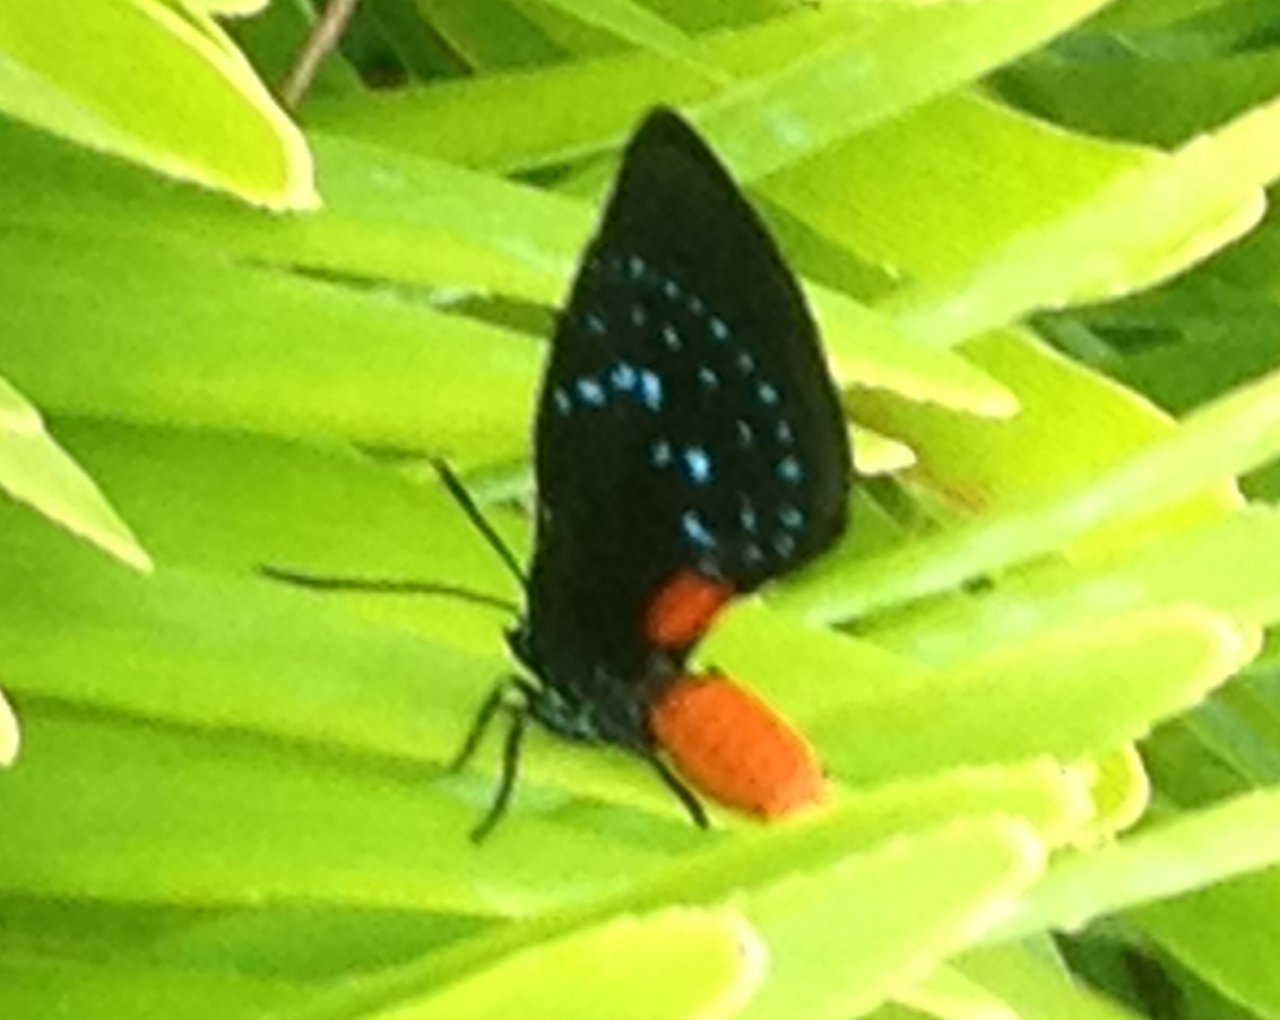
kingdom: Animalia
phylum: Arthropoda
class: Insecta
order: Lepidoptera
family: Lycaenidae
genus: Eumaeus
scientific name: Eumaeus atala
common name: Atala
